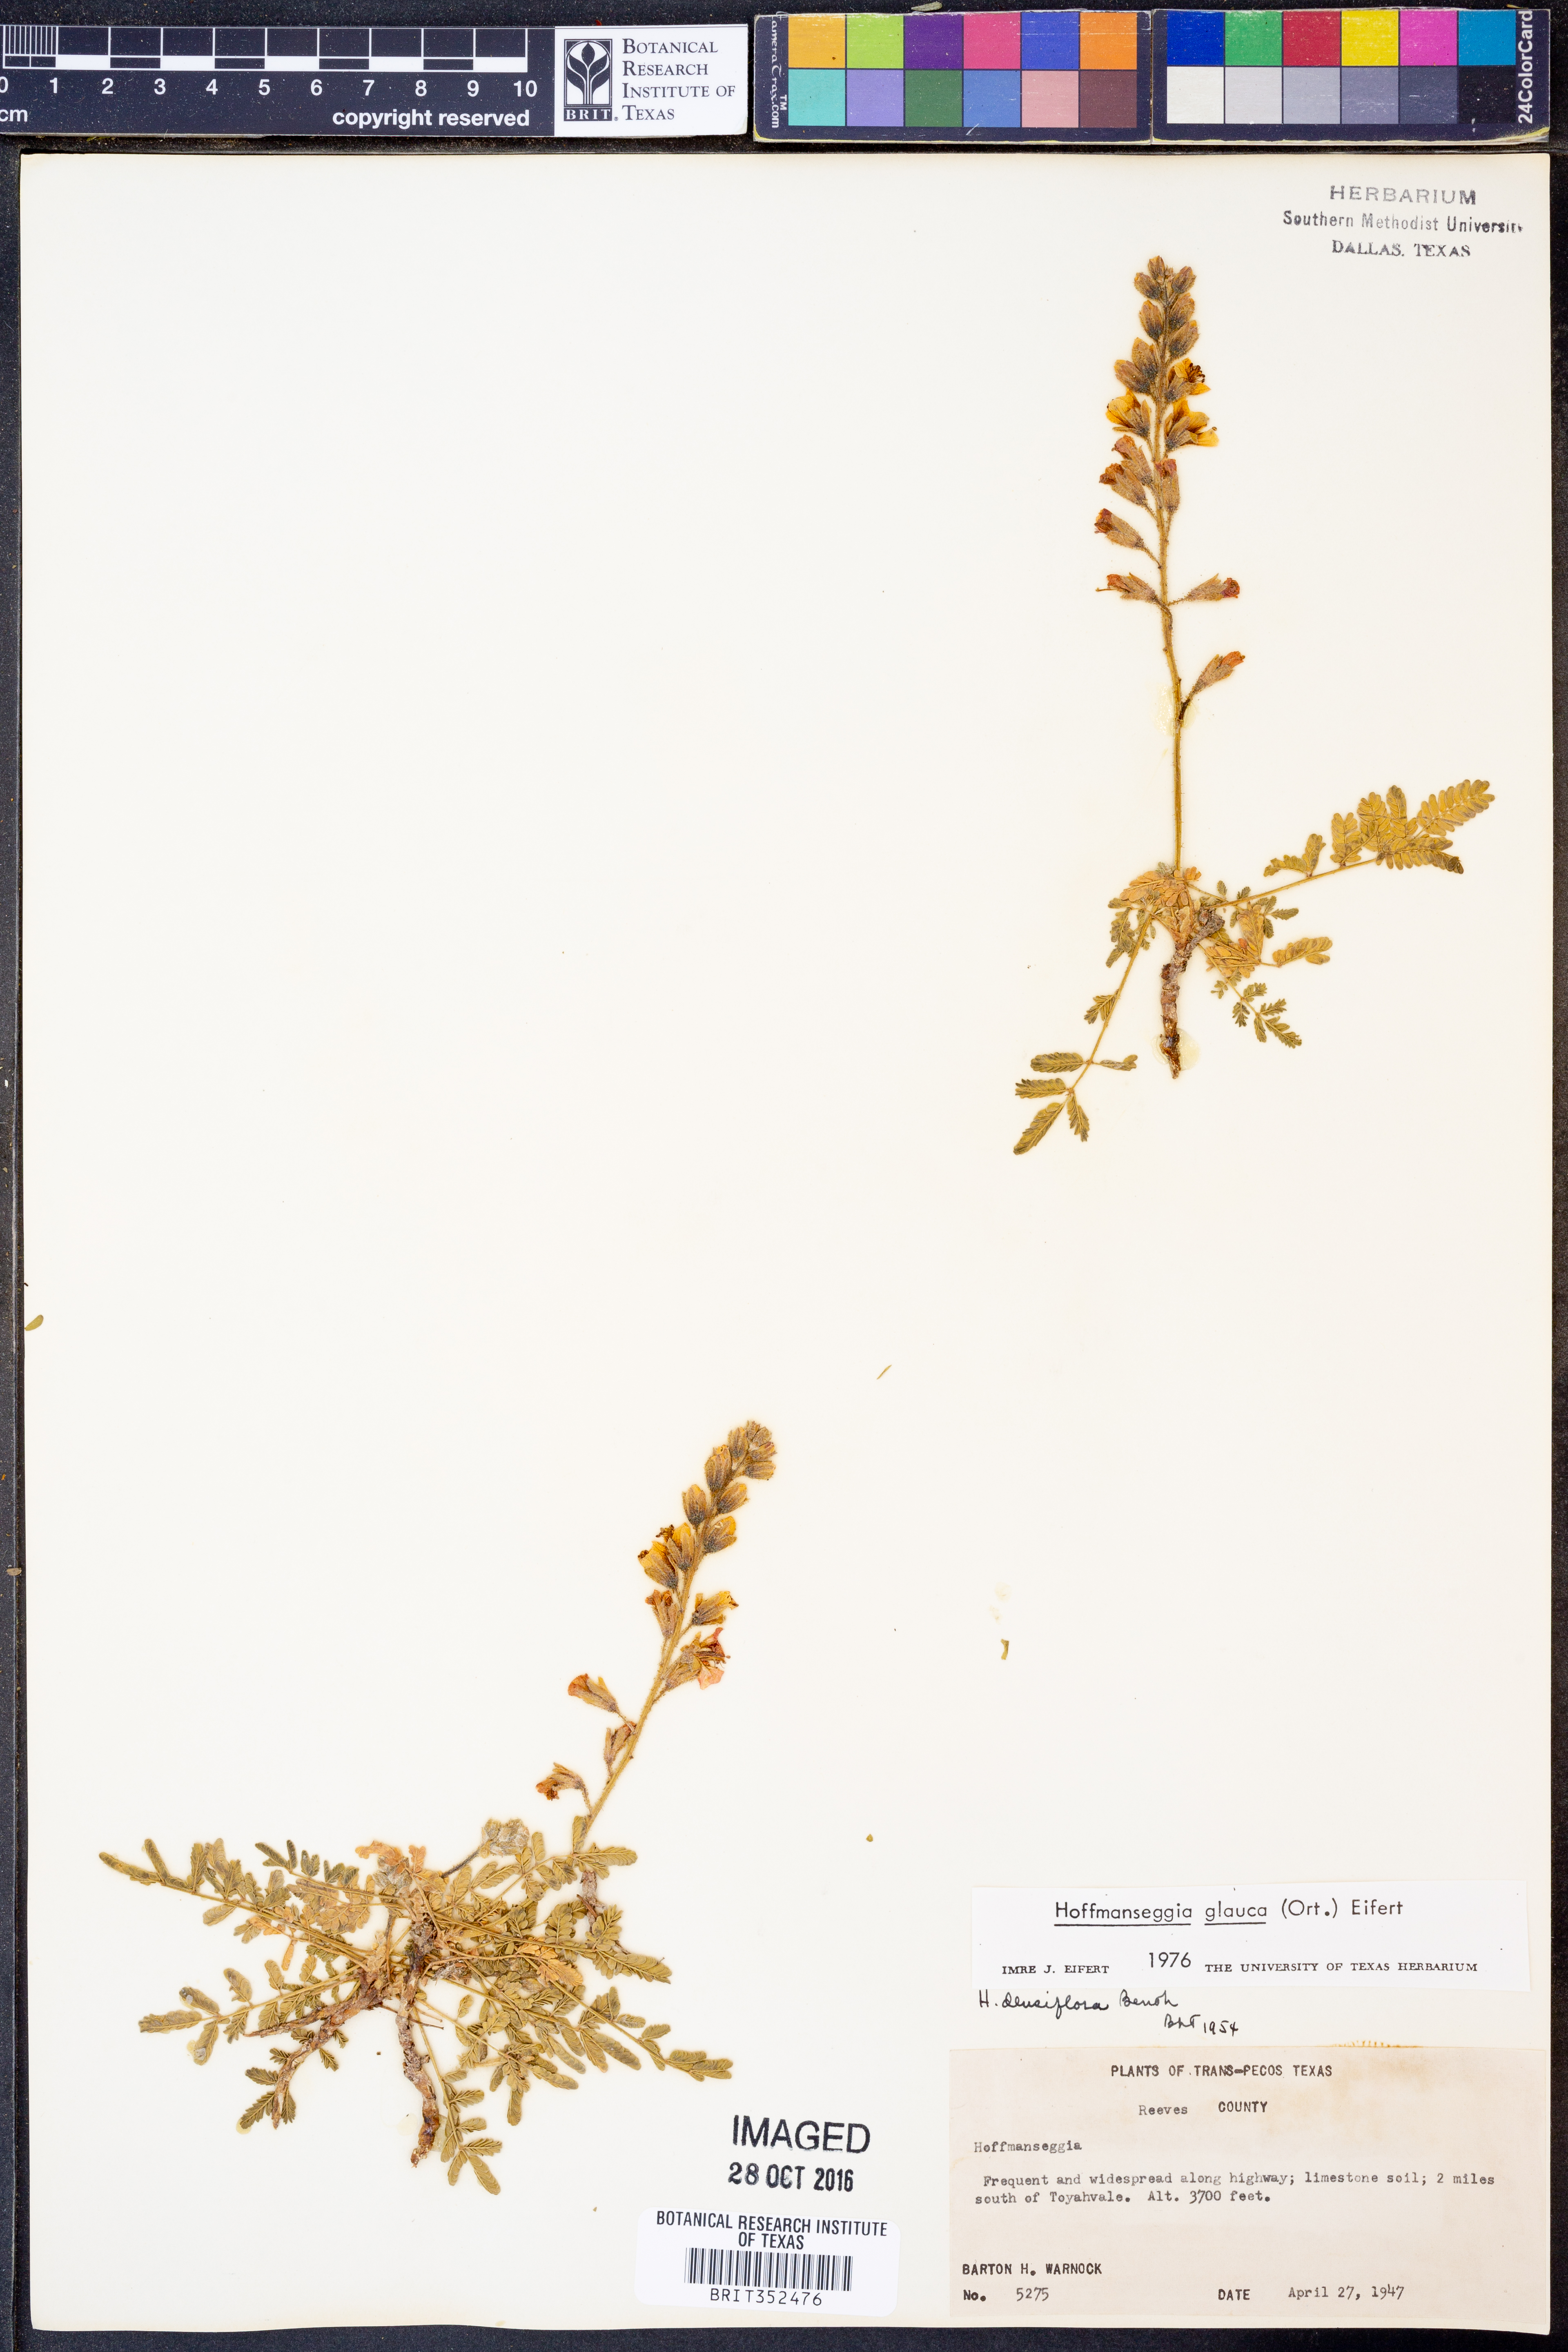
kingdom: Plantae
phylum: Tracheophyta
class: Magnoliopsida
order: Fabales
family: Fabaceae
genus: Hoffmannseggia
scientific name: Hoffmannseggia glauca
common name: Pignut
